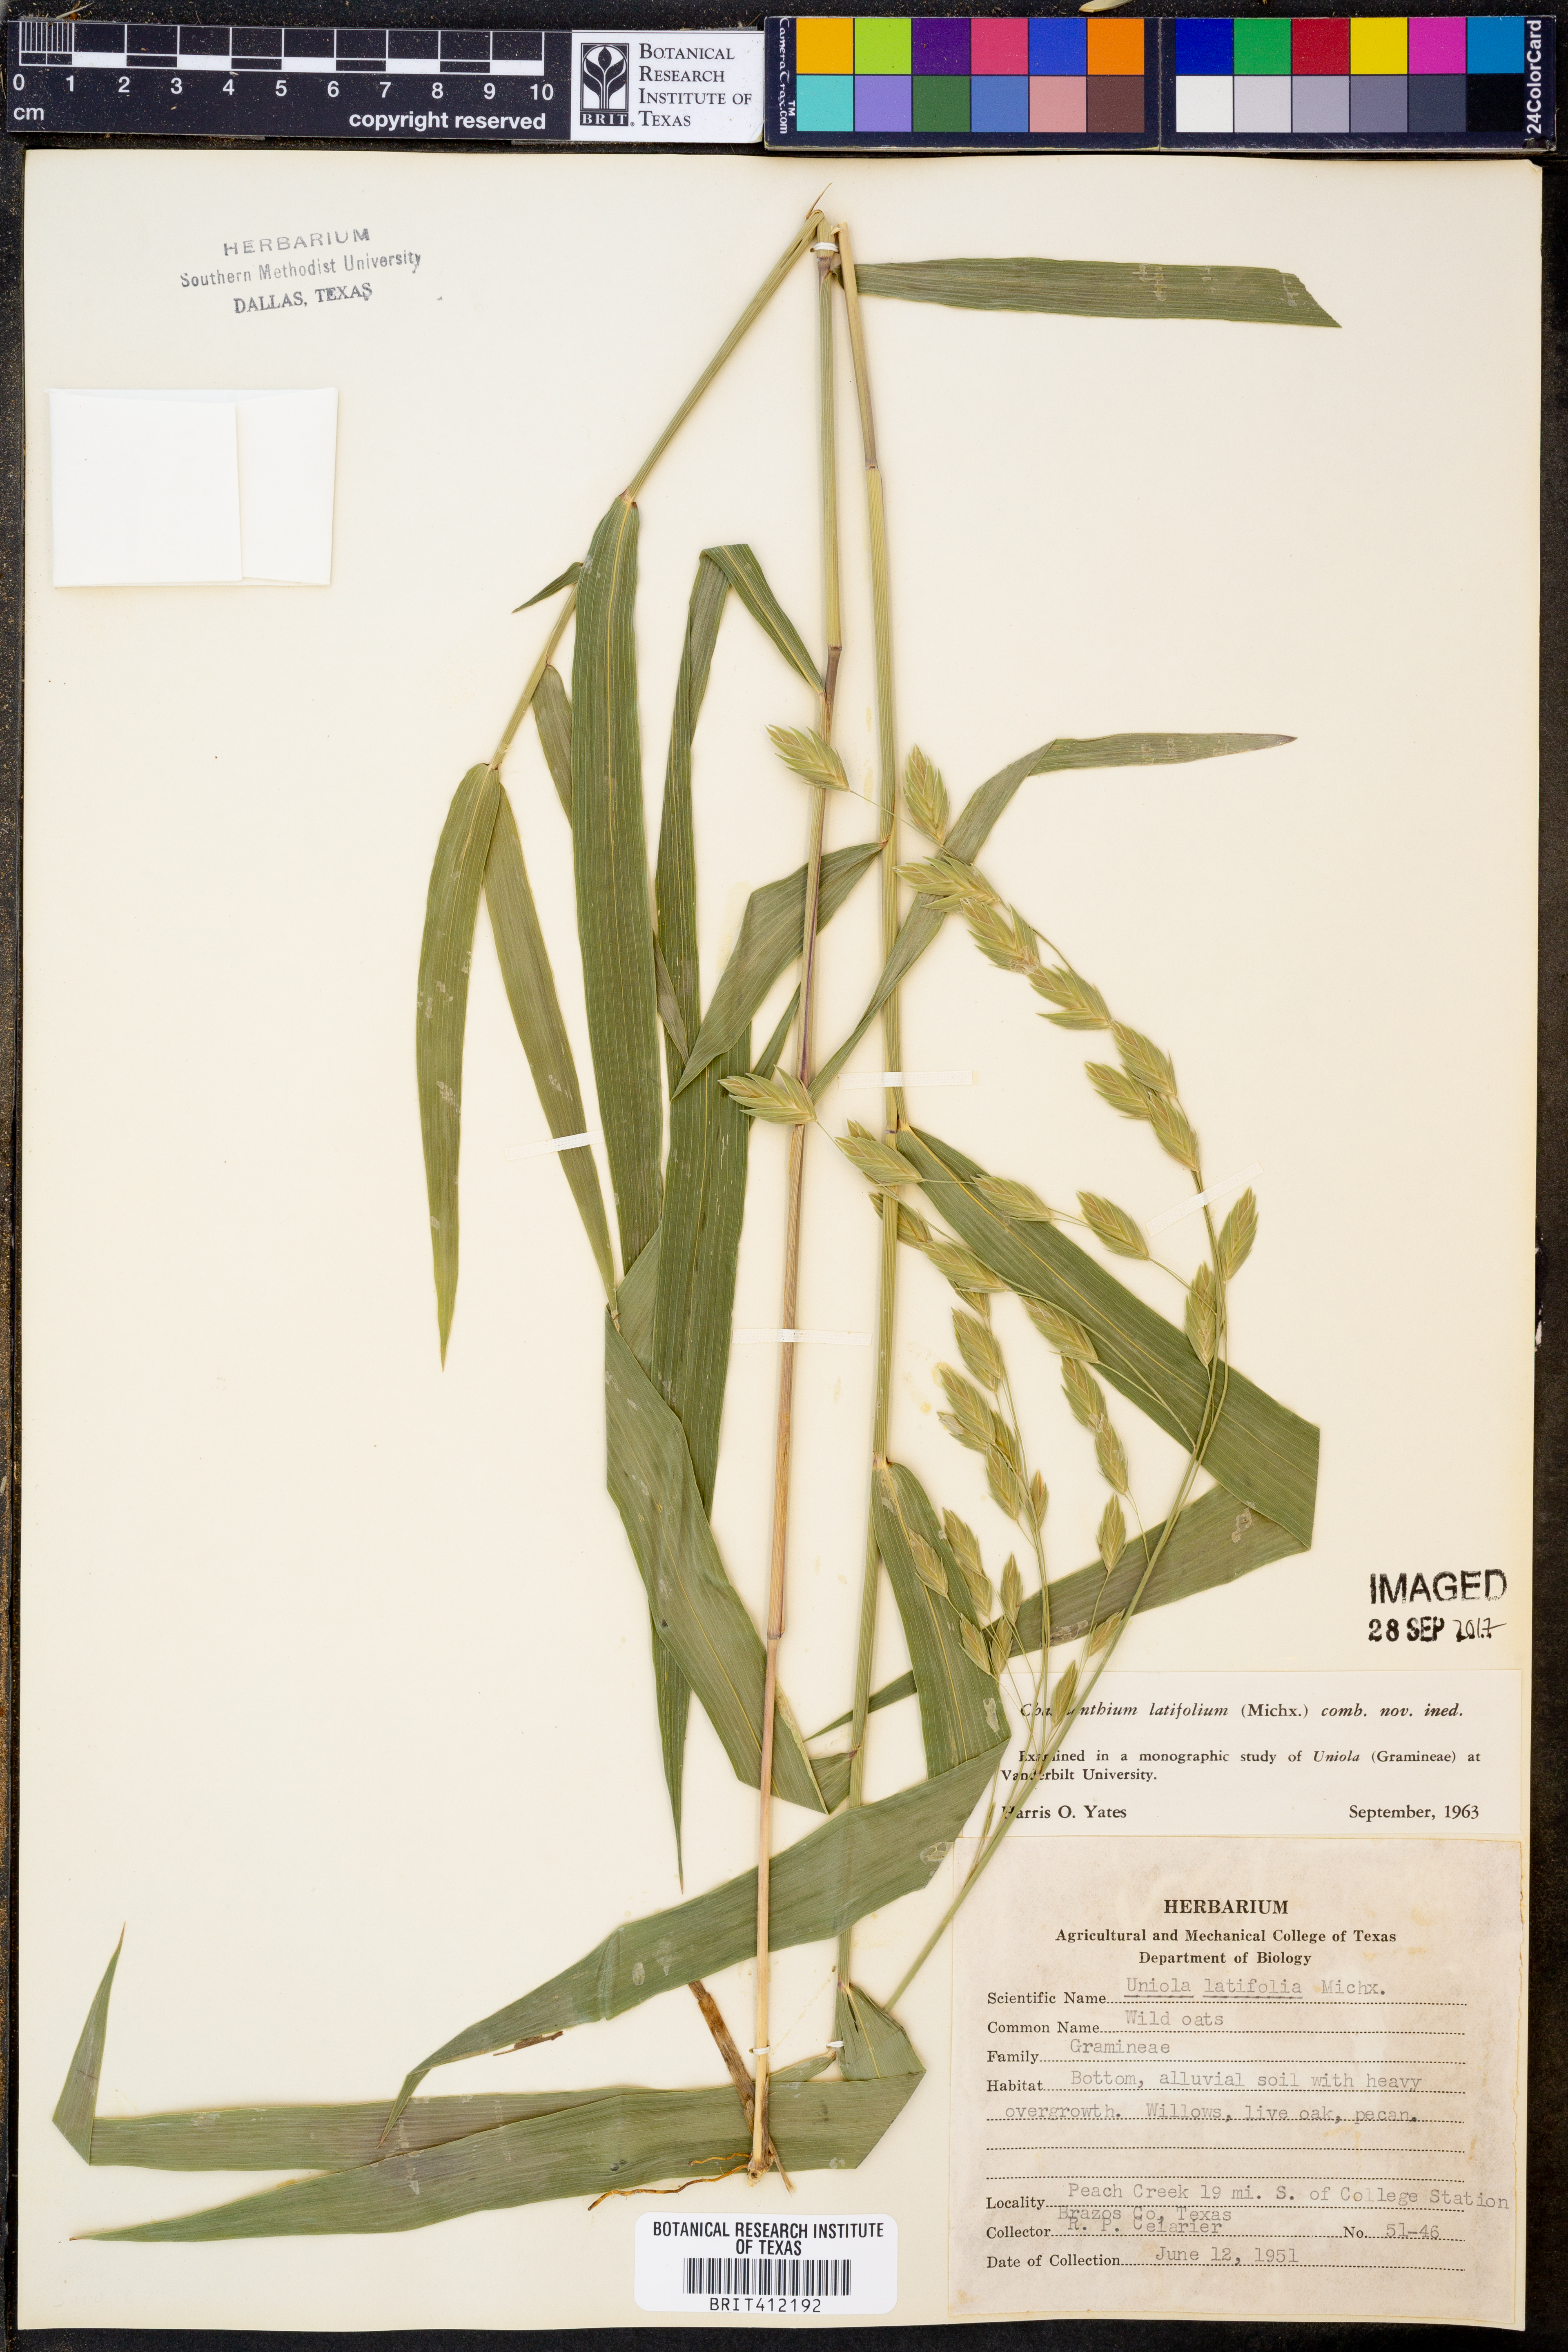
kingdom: Plantae
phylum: Tracheophyta
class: Liliopsida
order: Poales
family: Poaceae
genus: Chasmanthium
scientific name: Chasmanthium latifolium
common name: Broad-leaved chasmanthium
